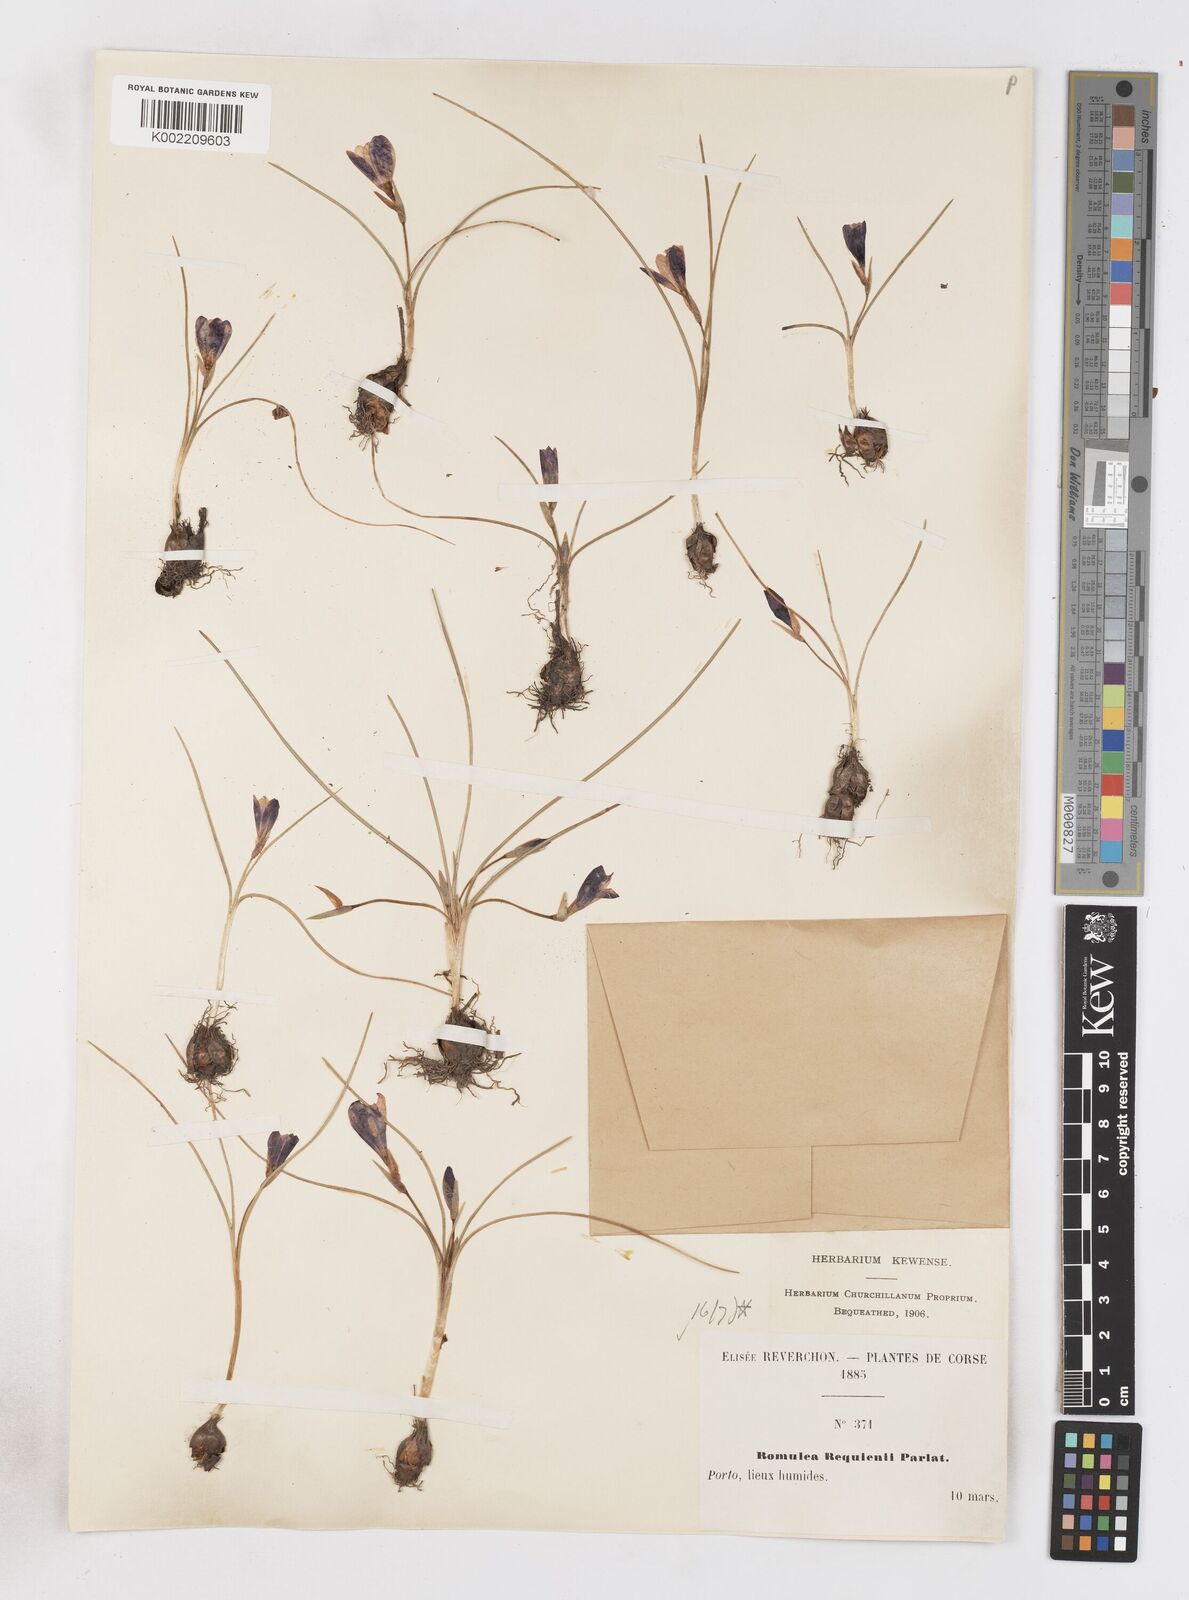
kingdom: Plantae
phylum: Tracheophyta
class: Liliopsida
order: Asparagales
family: Iridaceae
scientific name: Iridaceae
